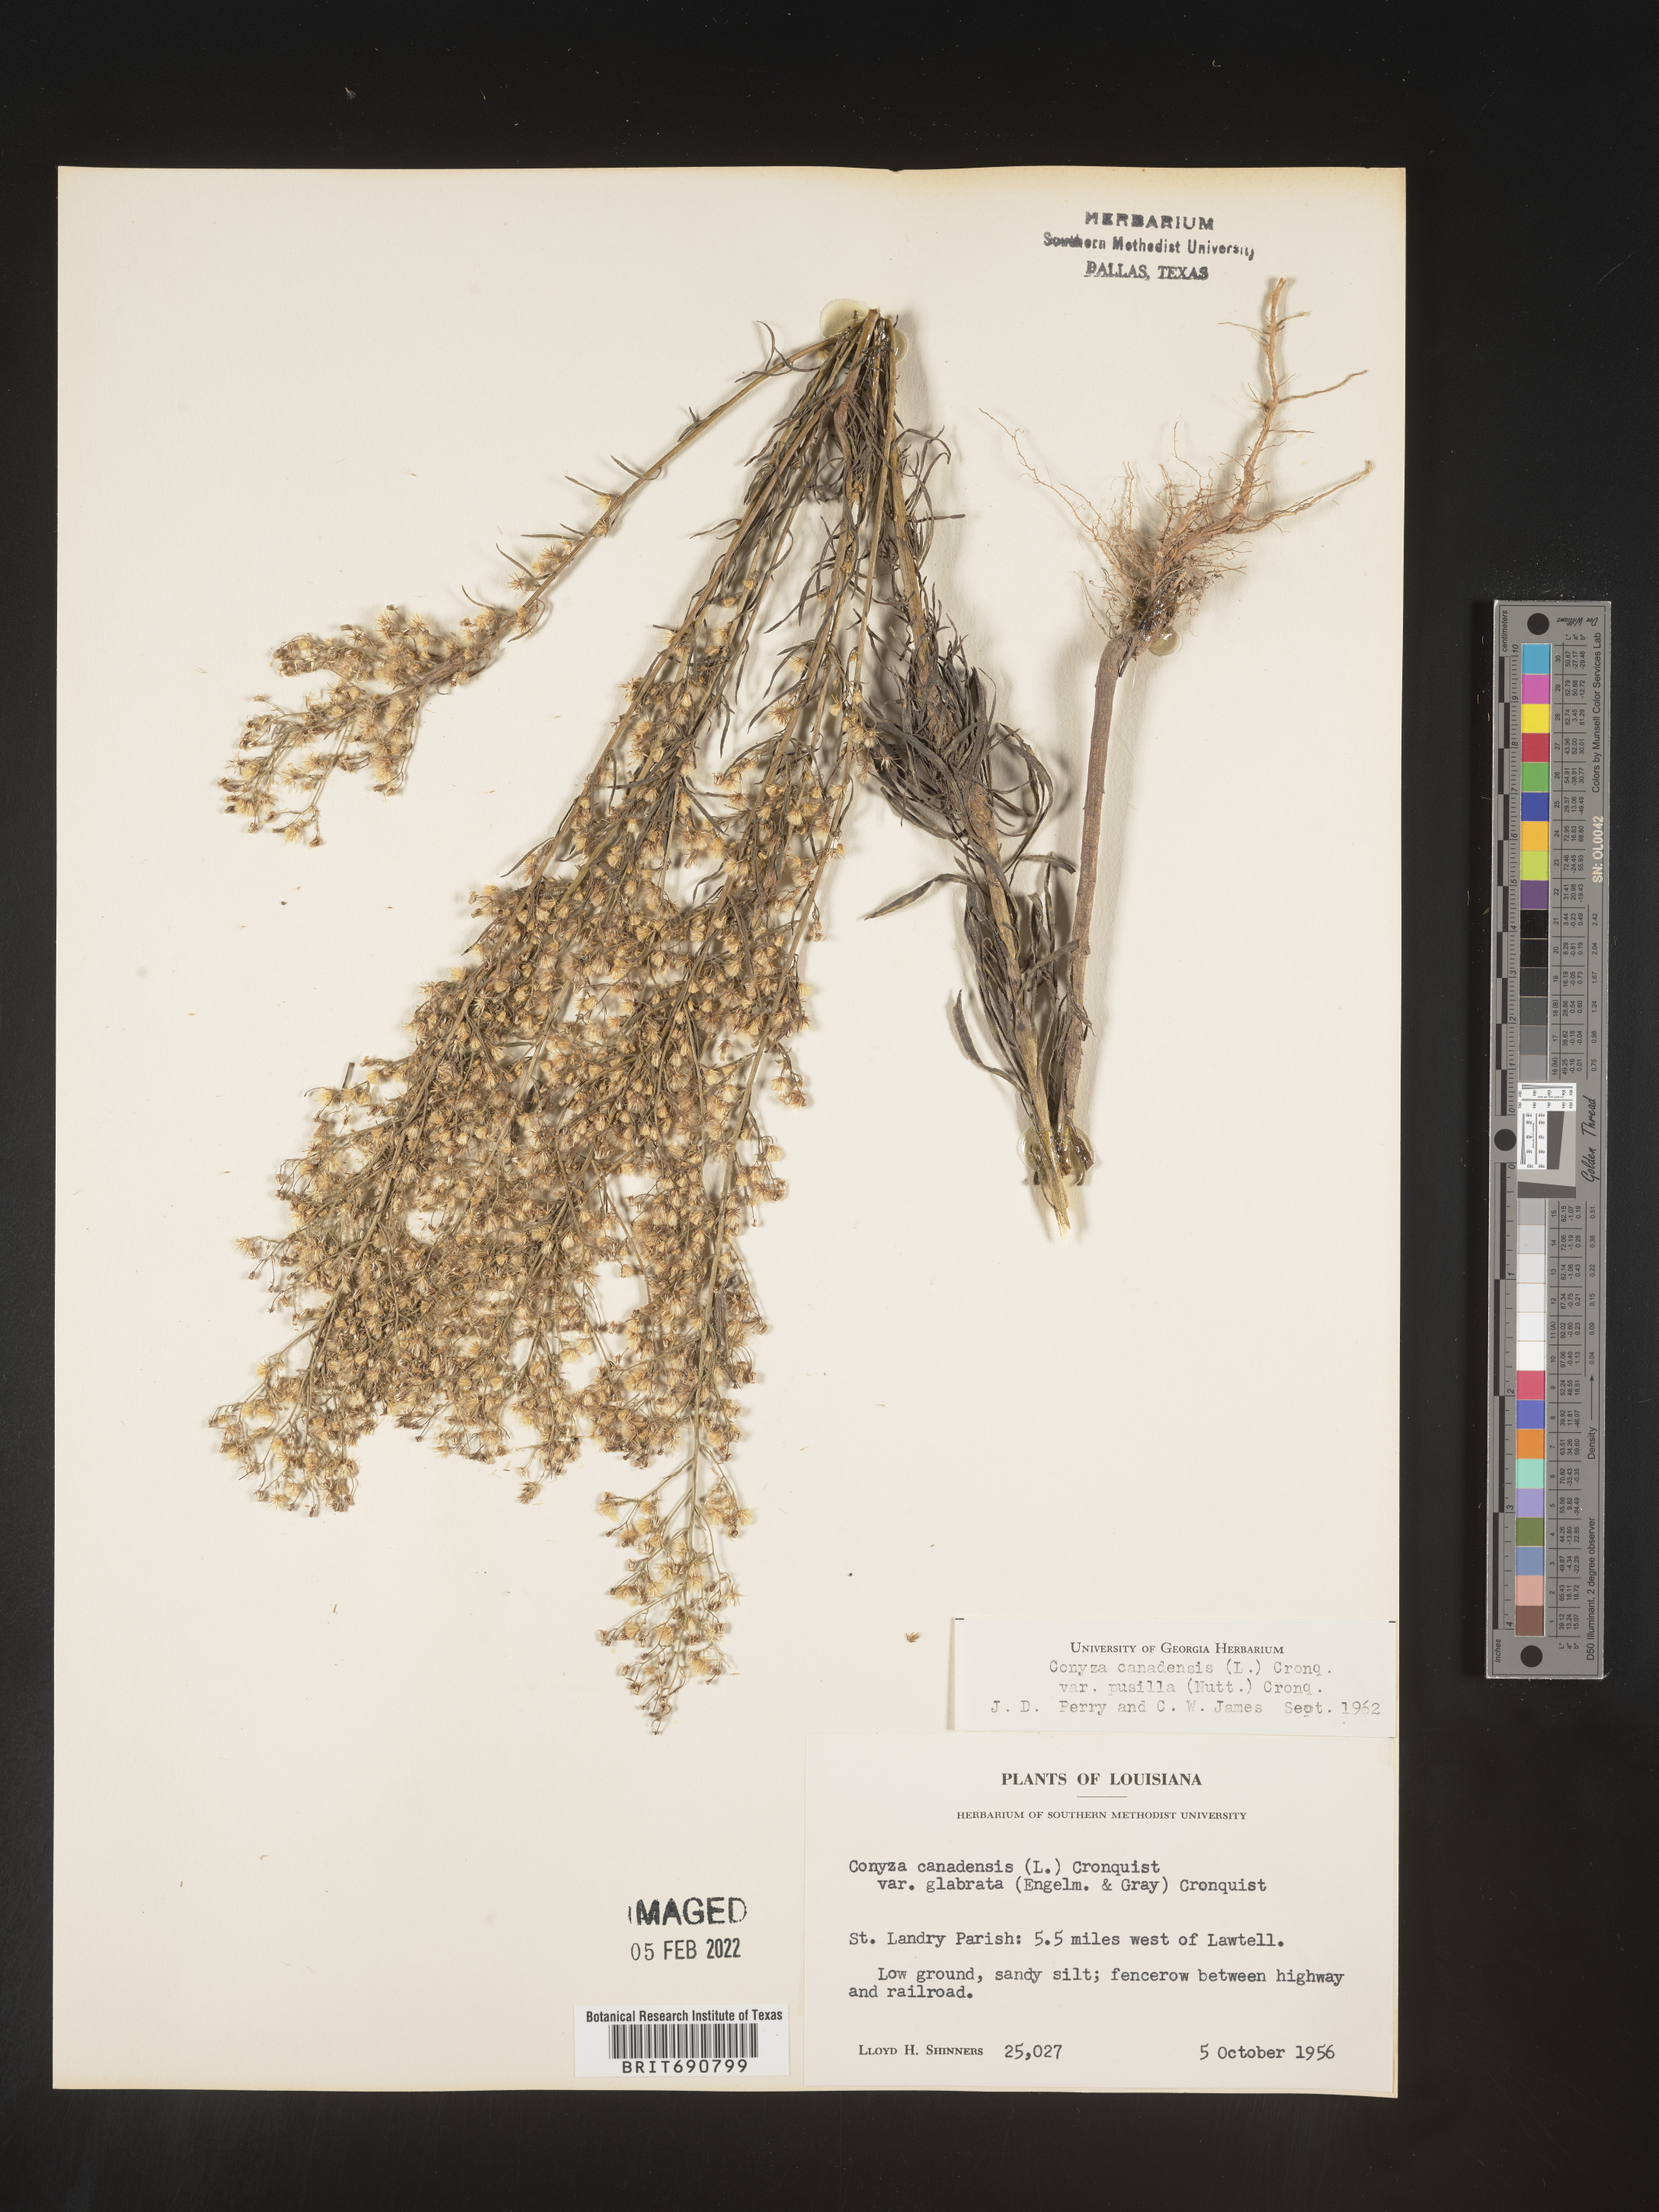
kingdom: Plantae
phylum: Tracheophyta
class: Magnoliopsida
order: Asterales
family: Asteraceae
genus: Erigeron
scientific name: Erigeron canadensis
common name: Canadian fleabane
